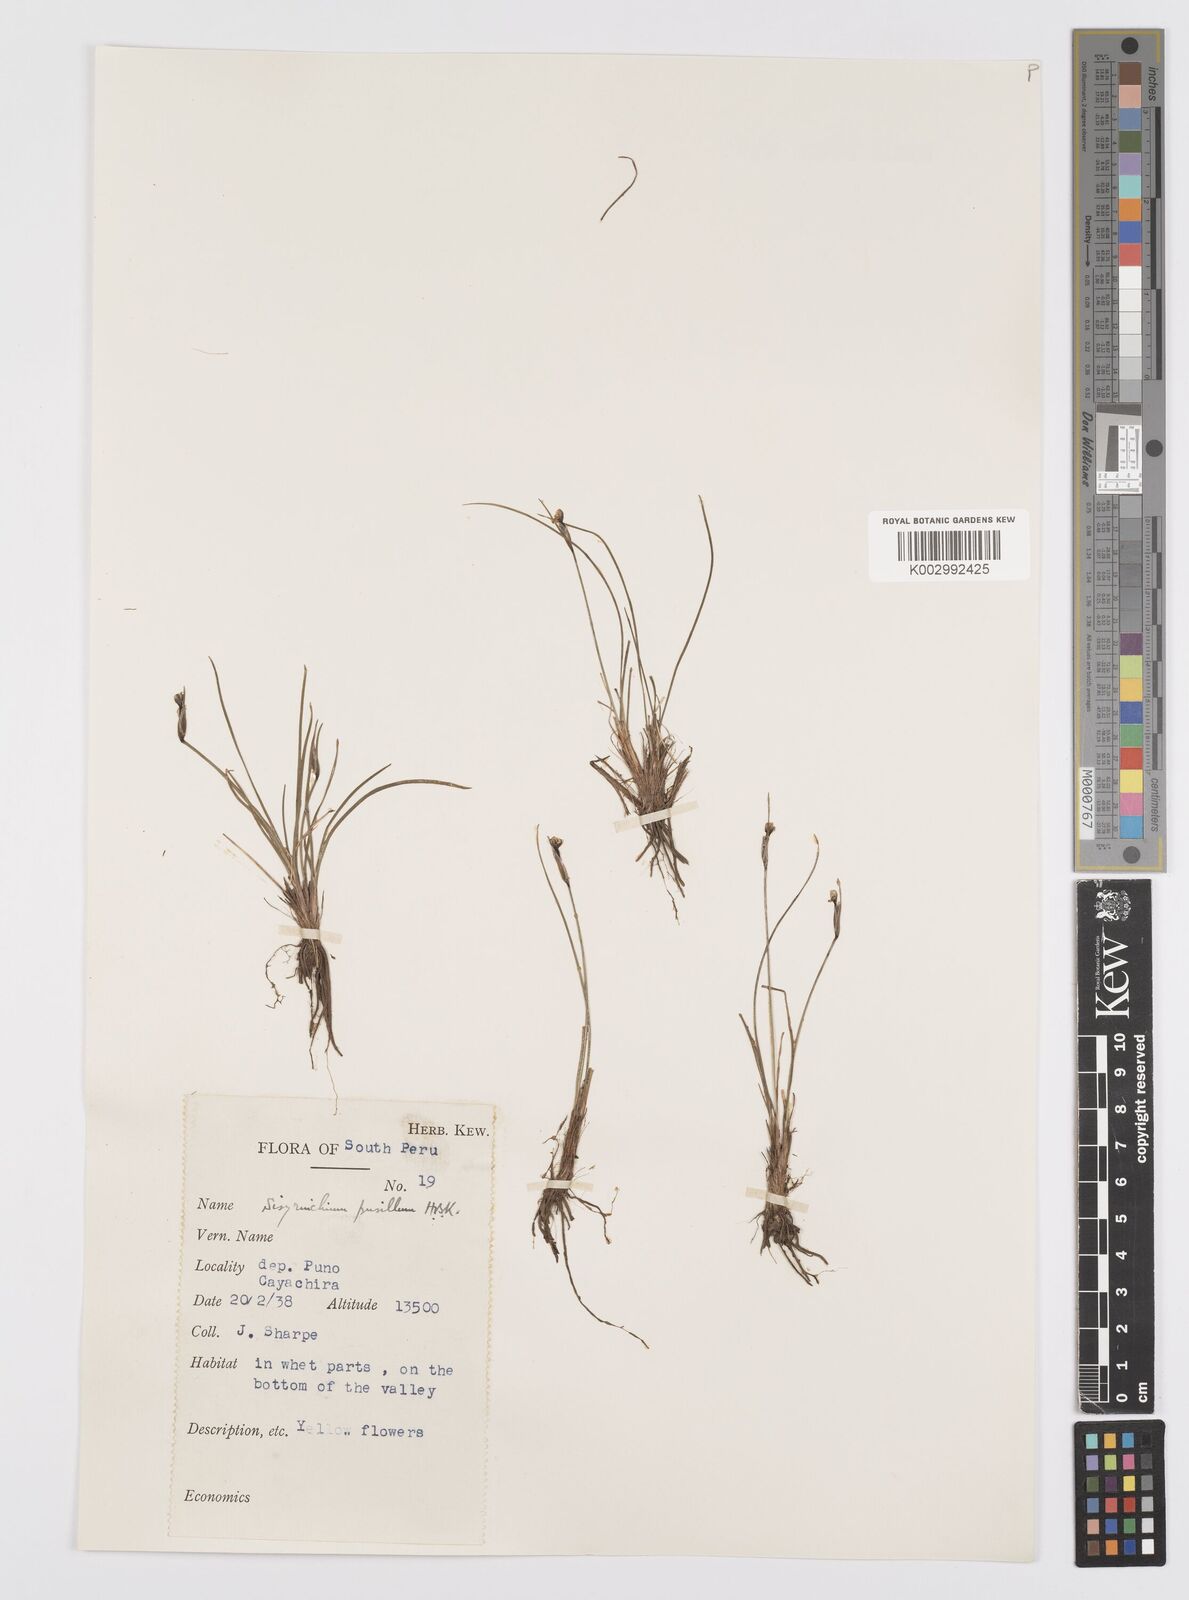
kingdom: Plantae
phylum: Tracheophyta
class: Liliopsida
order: Asparagales
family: Iridaceae
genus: Sisyrinchium
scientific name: Sisyrinchium pusillum
